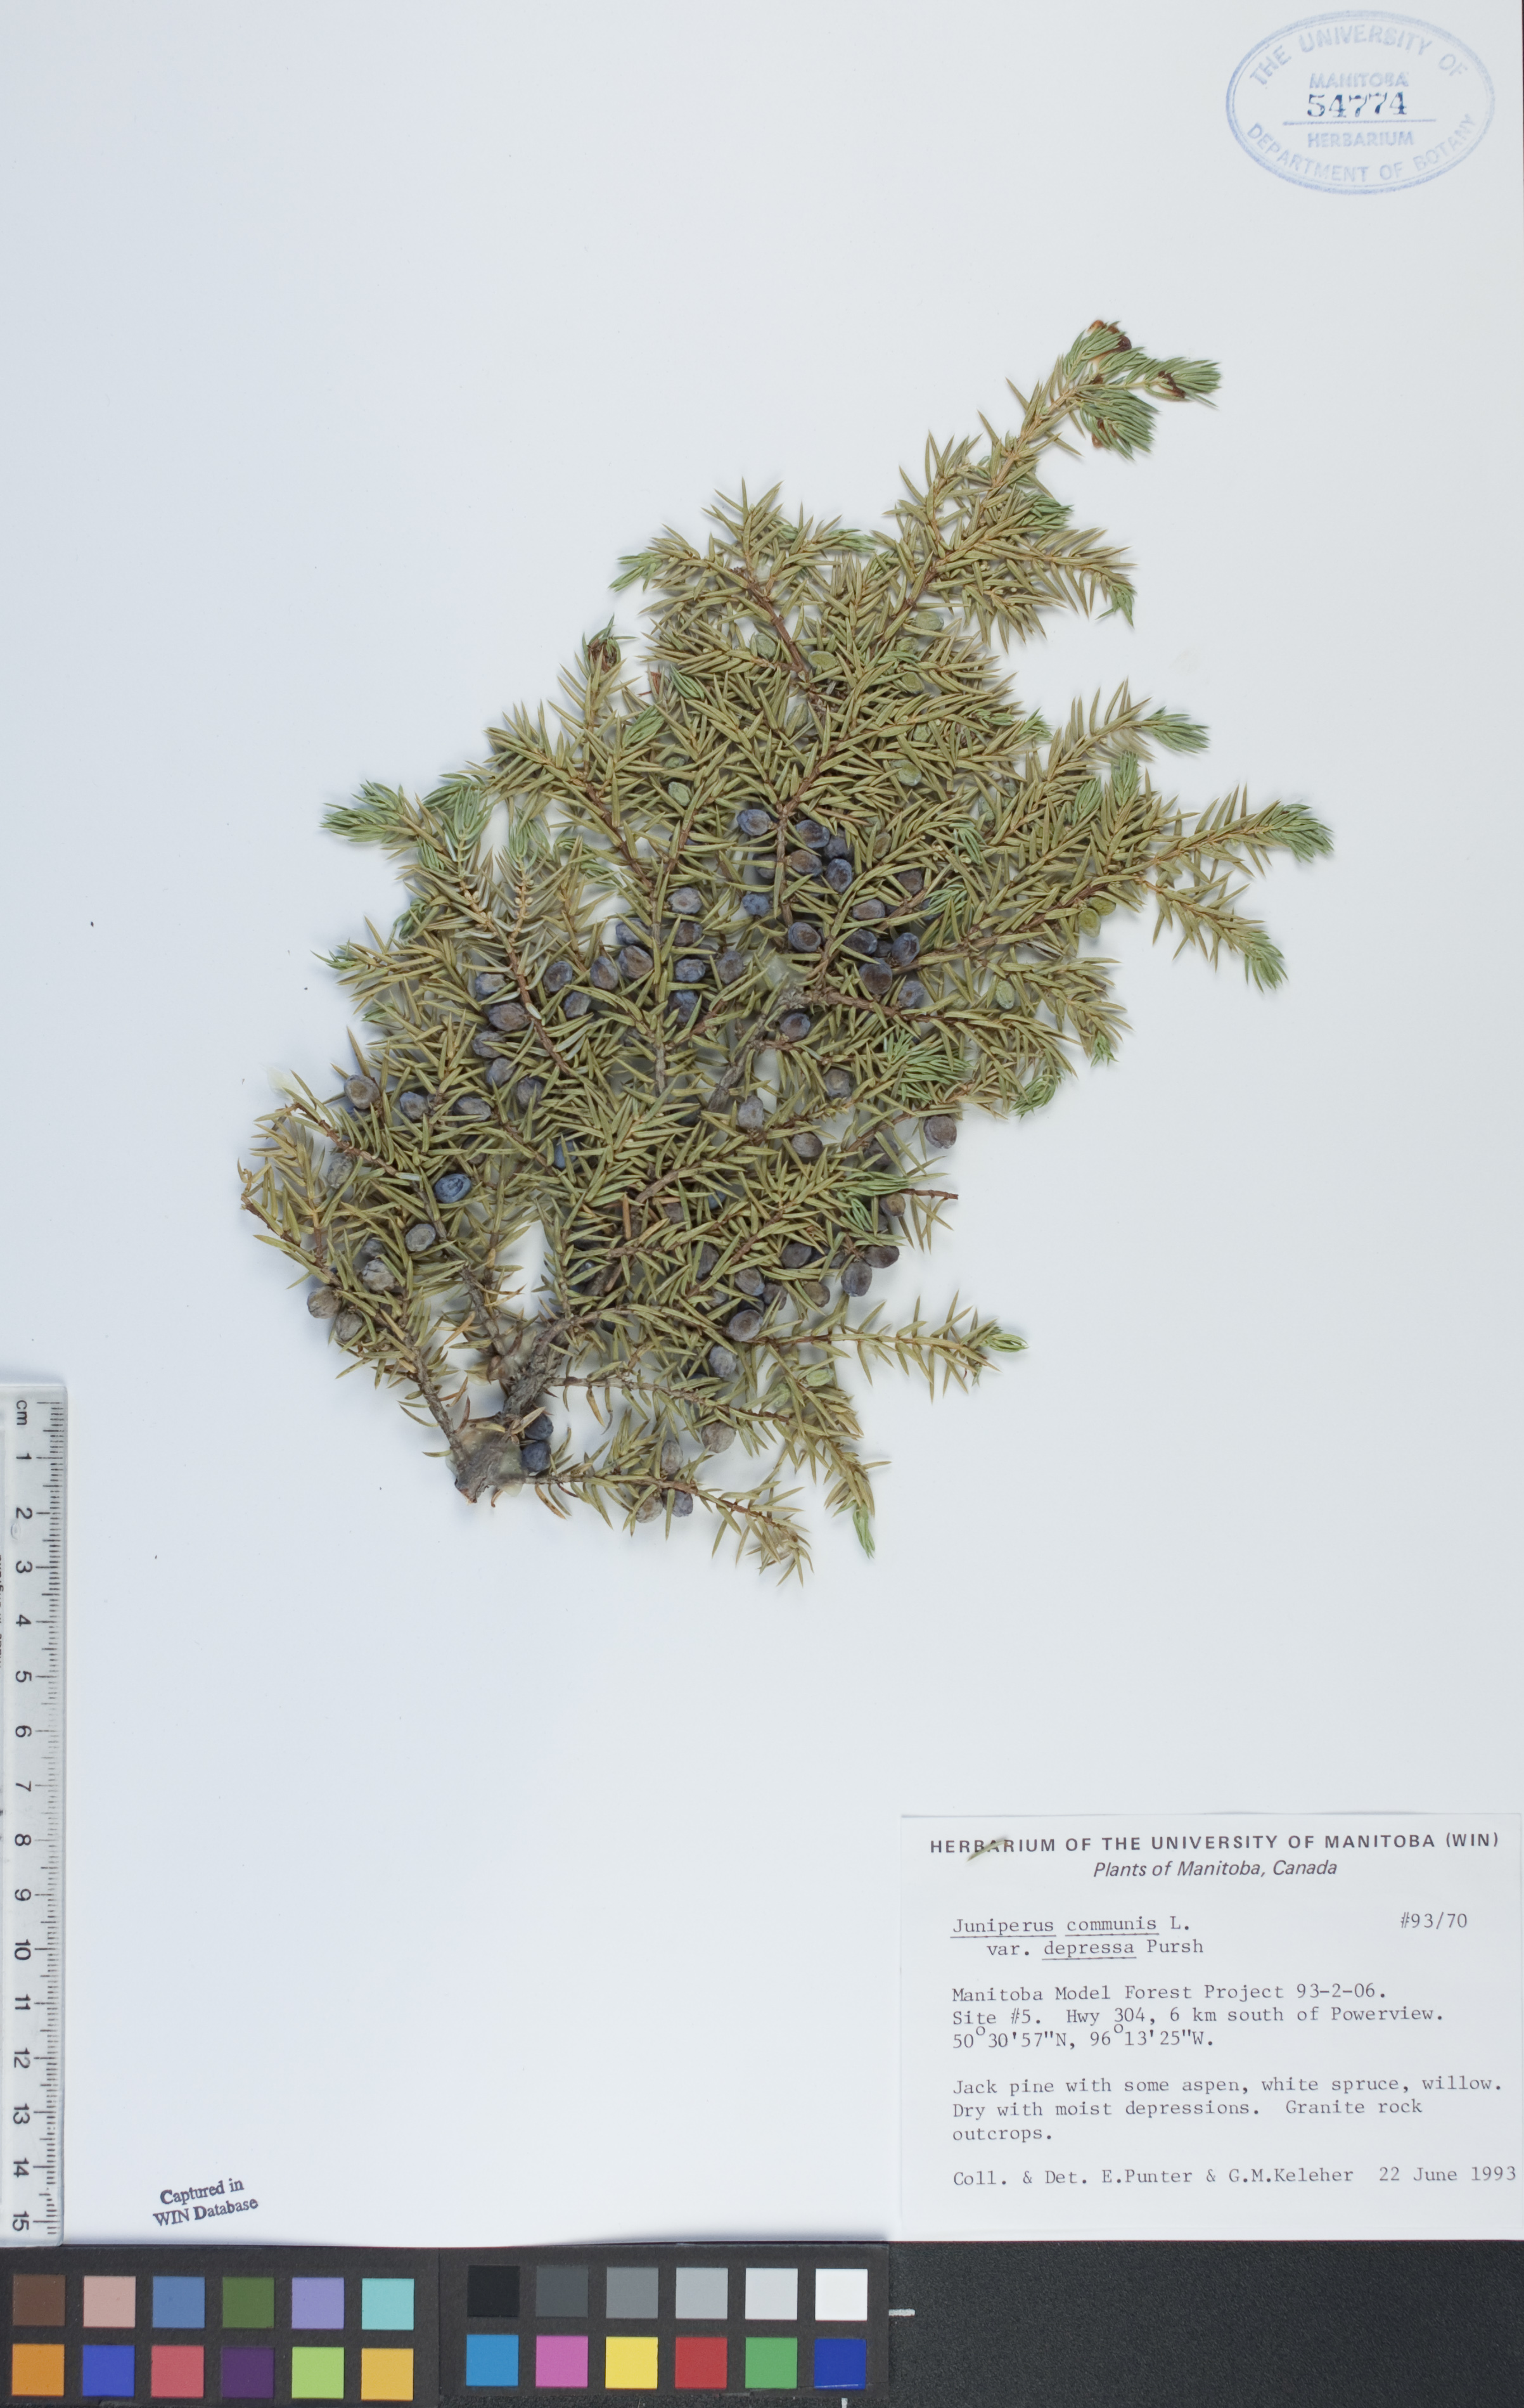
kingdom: Plantae
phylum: Tracheophyta
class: Pinopsida
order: Pinales
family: Cupressaceae
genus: Juniperus
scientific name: Juniperus communis
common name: Common juniper
